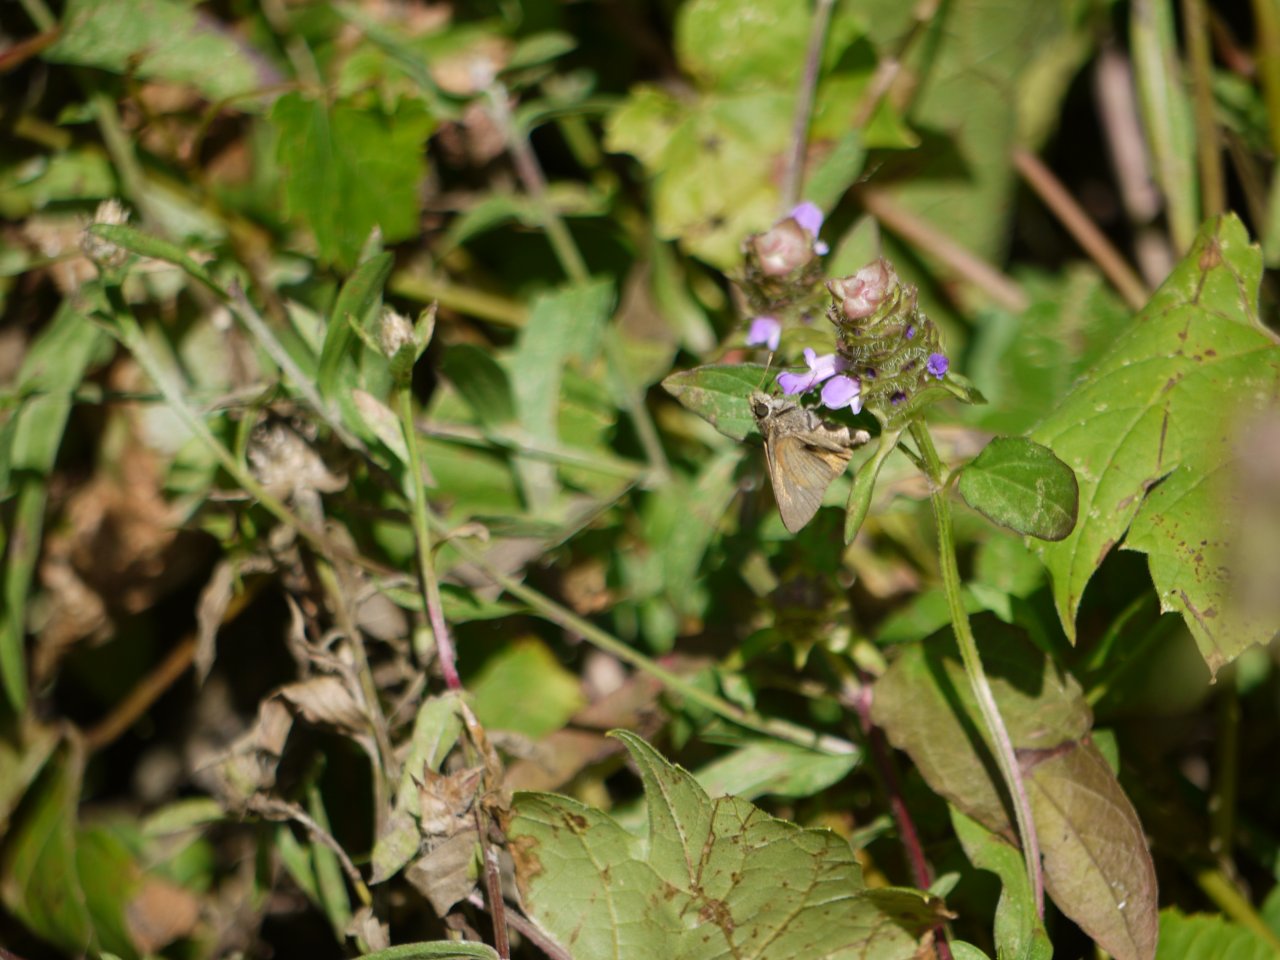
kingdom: Animalia
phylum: Arthropoda
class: Insecta
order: Lepidoptera
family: Hesperiidae
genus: Euphyes
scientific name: Euphyes vestris
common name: Dun Skipper
